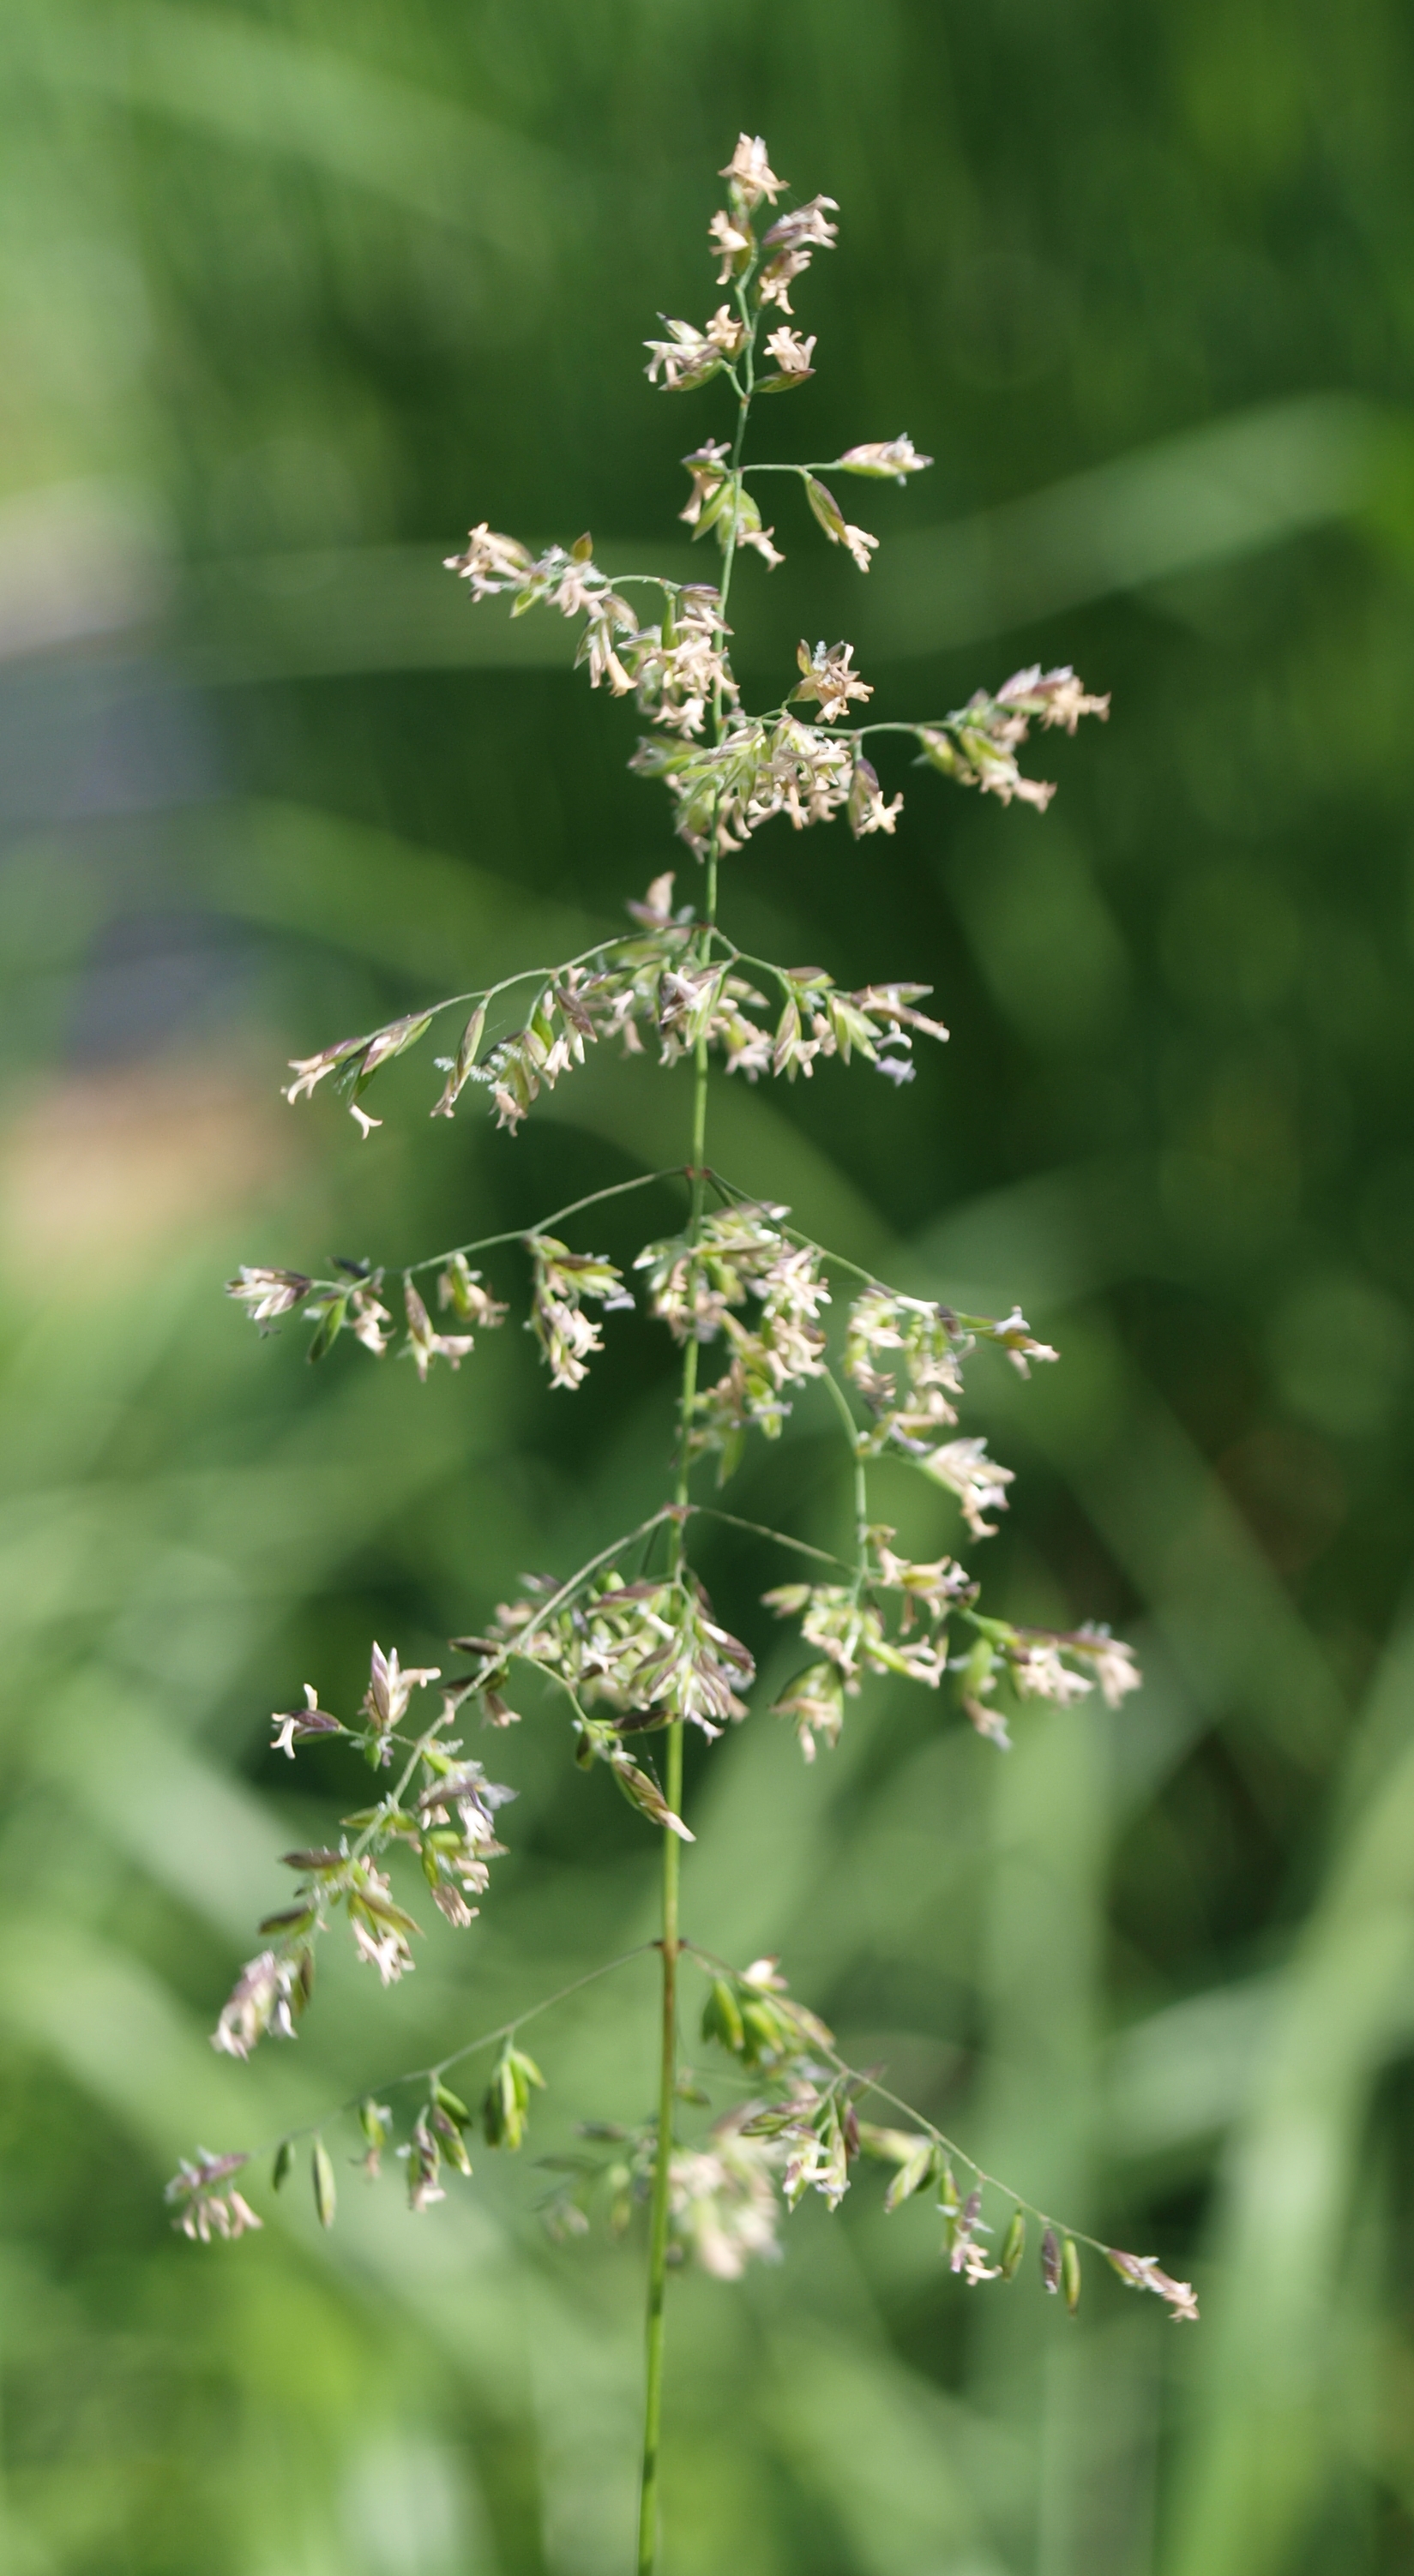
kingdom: Plantae
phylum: Tracheophyta
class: Liliopsida
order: Poales
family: Poaceae
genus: Lolium
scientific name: Lolium pratense
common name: Dover grass
